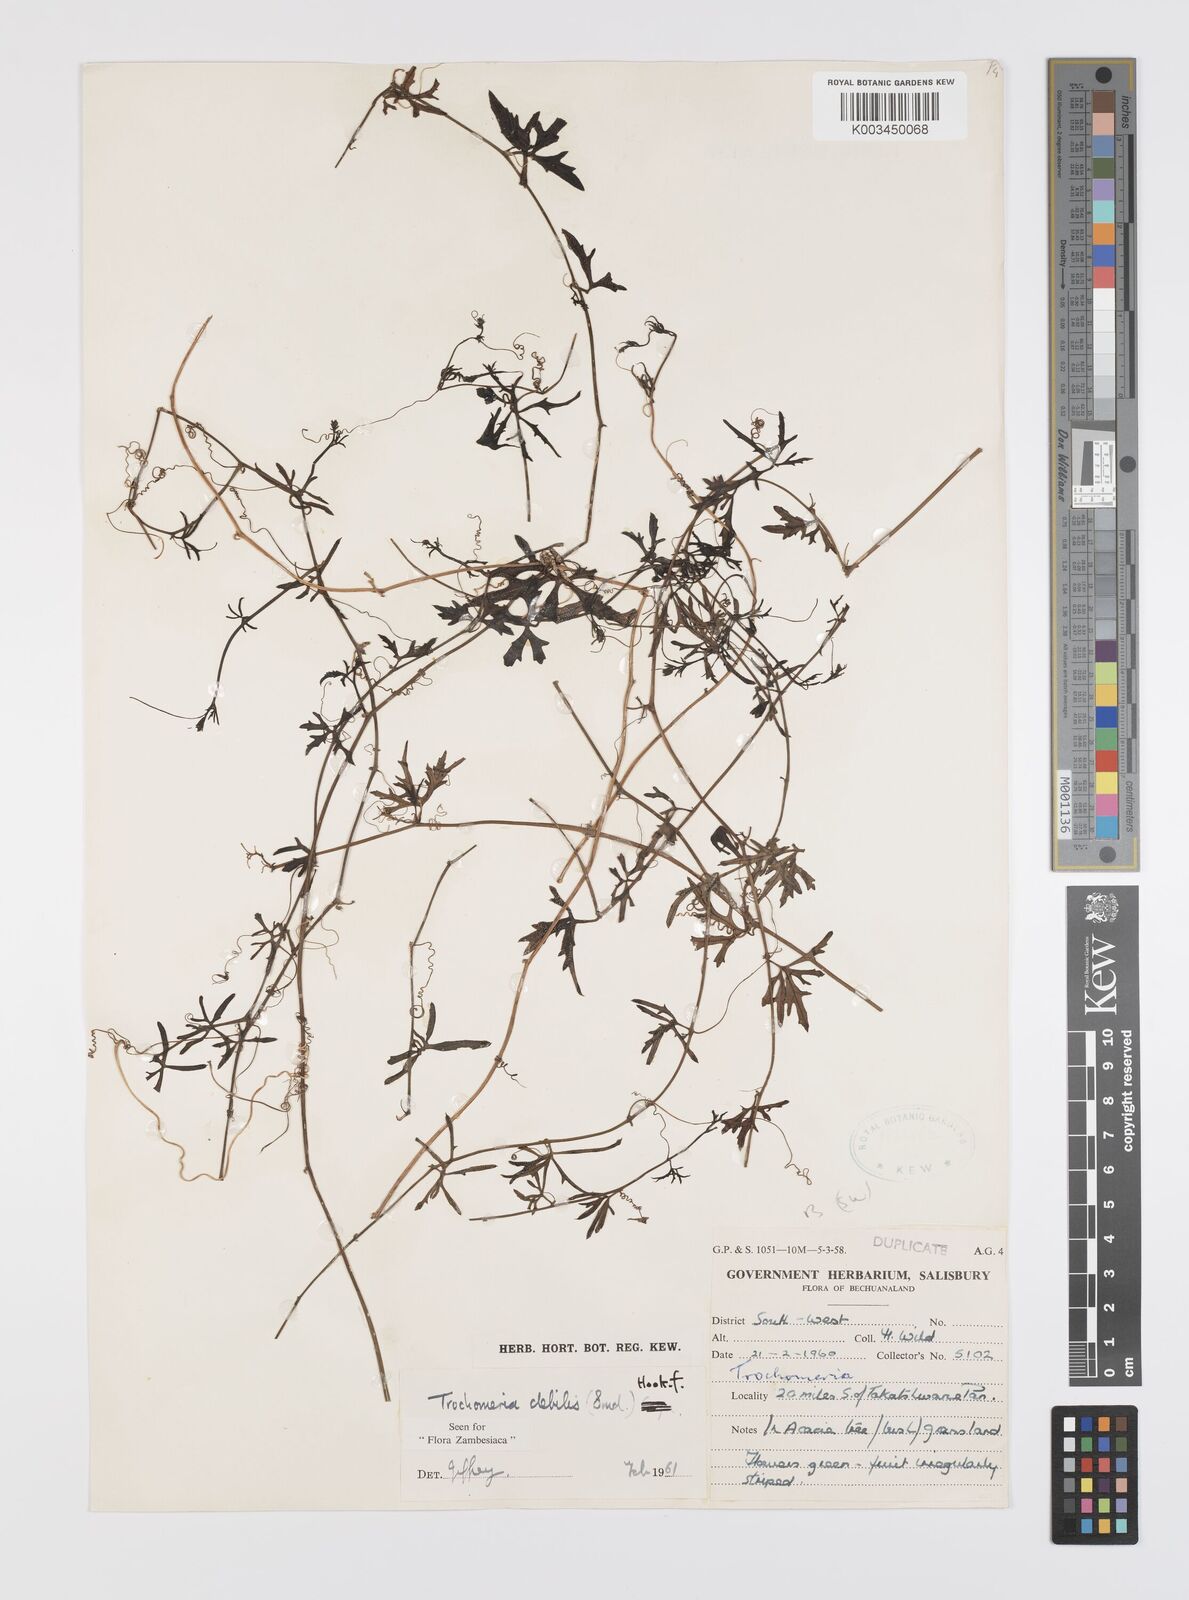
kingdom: Plantae
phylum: Tracheophyta
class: Magnoliopsida
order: Cucurbitales
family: Cucurbitaceae
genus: Trochomeria
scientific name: Trochomeria debilis
